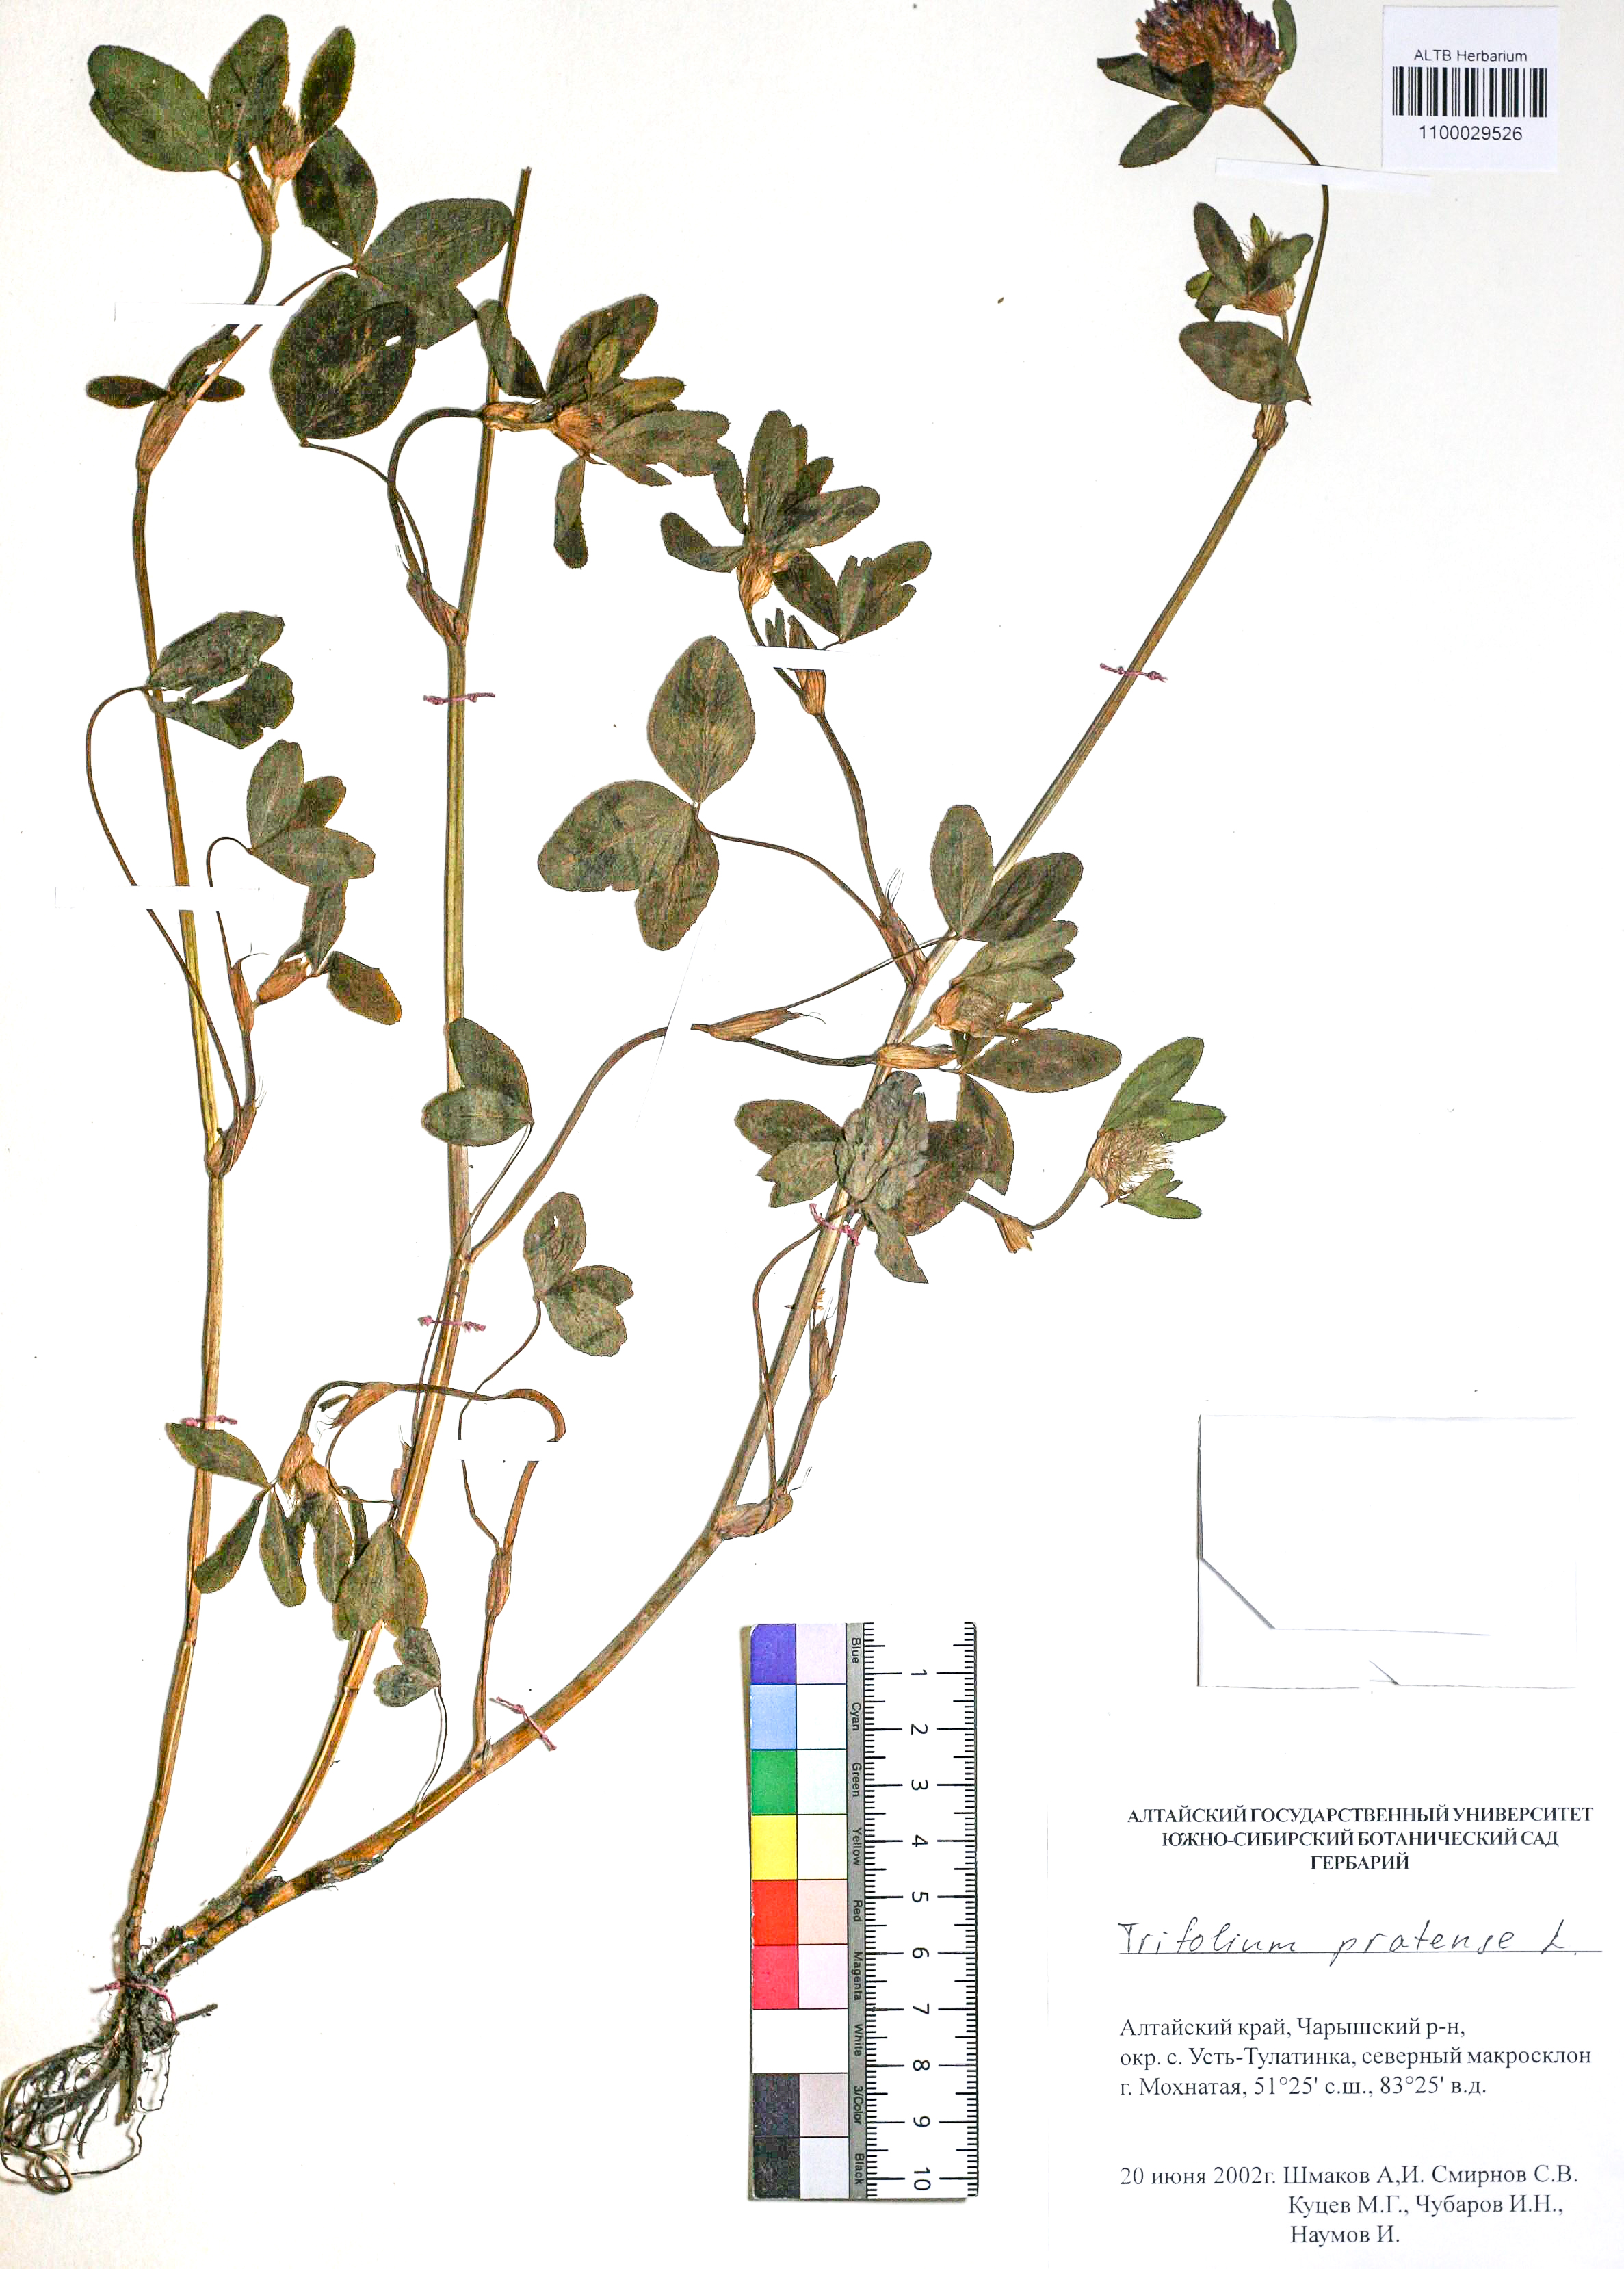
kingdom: Plantae
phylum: Tracheophyta
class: Magnoliopsida
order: Fabales
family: Fabaceae
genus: Trifolium
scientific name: Trifolium pratense
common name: Red clover
